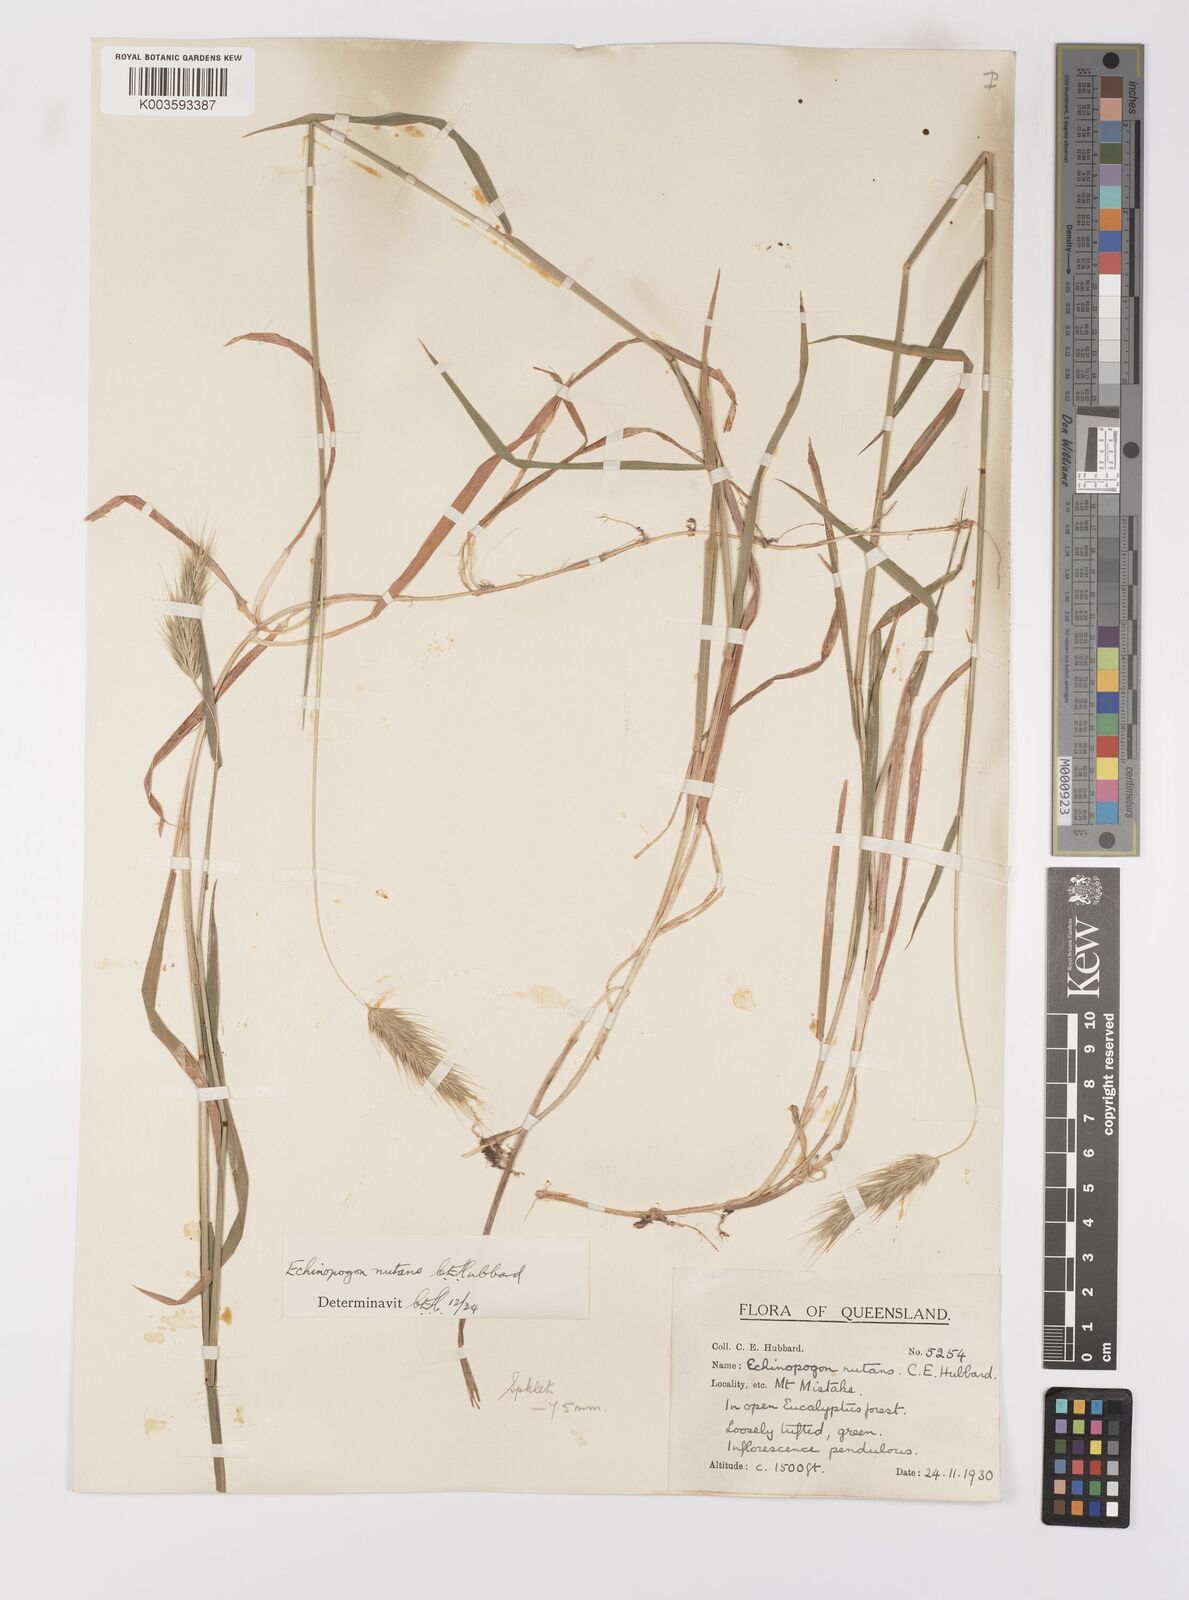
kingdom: Plantae
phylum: Tracheophyta
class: Liliopsida
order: Poales
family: Poaceae
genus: Echinopogon
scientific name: Echinopogon nutans
